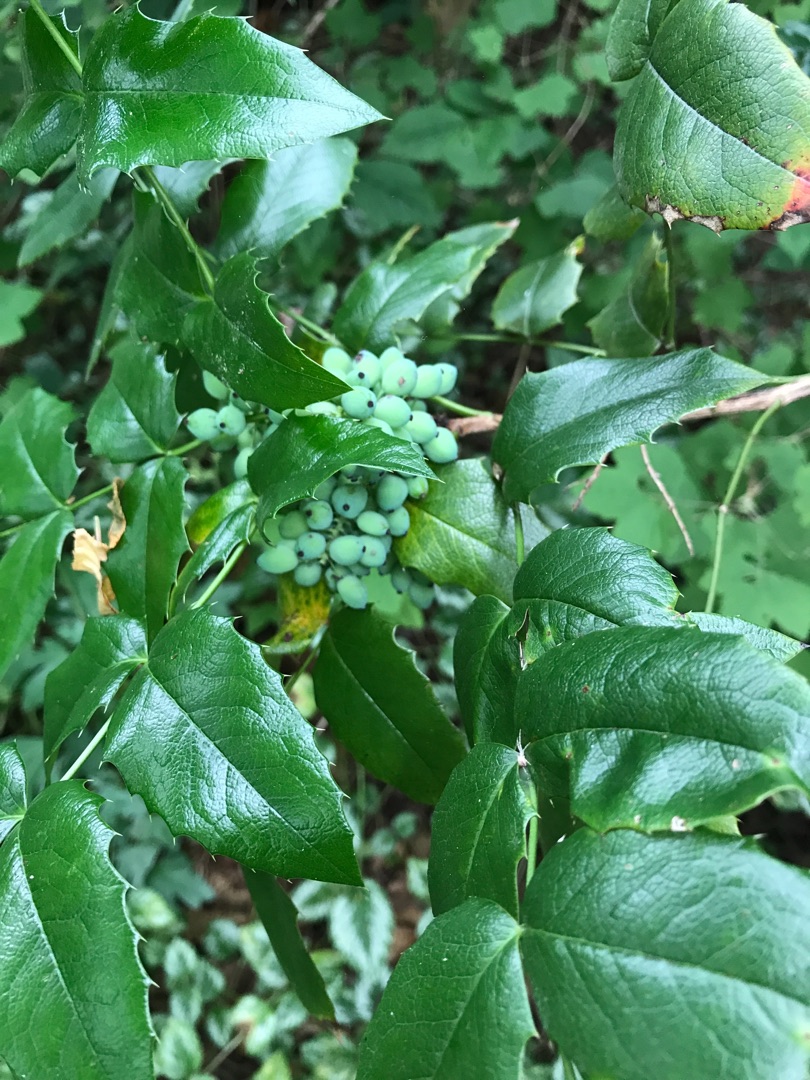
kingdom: Plantae
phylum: Tracheophyta
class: Magnoliopsida
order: Ranunculales
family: Berberidaceae
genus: Mahonia
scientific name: Mahonia aquifolium
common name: Almindelig mahonie
